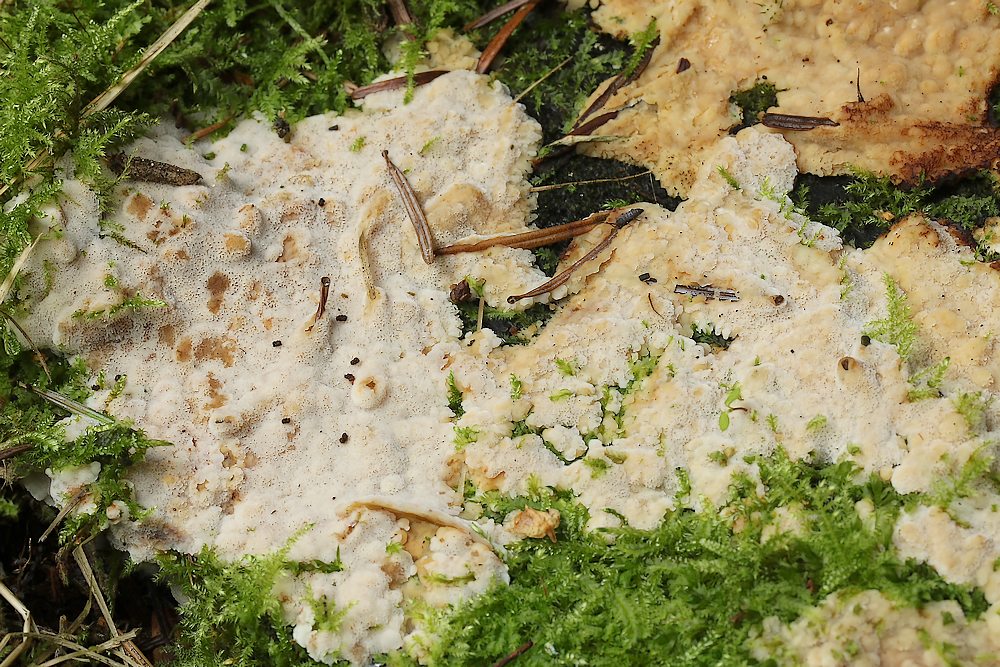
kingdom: Fungi
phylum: Basidiomycota
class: Agaricomycetes
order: Polyporales
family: Meripilaceae
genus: Rigidoporus
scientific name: Rigidoporus sanguinolentus
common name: blod-skorpeporesvamp
